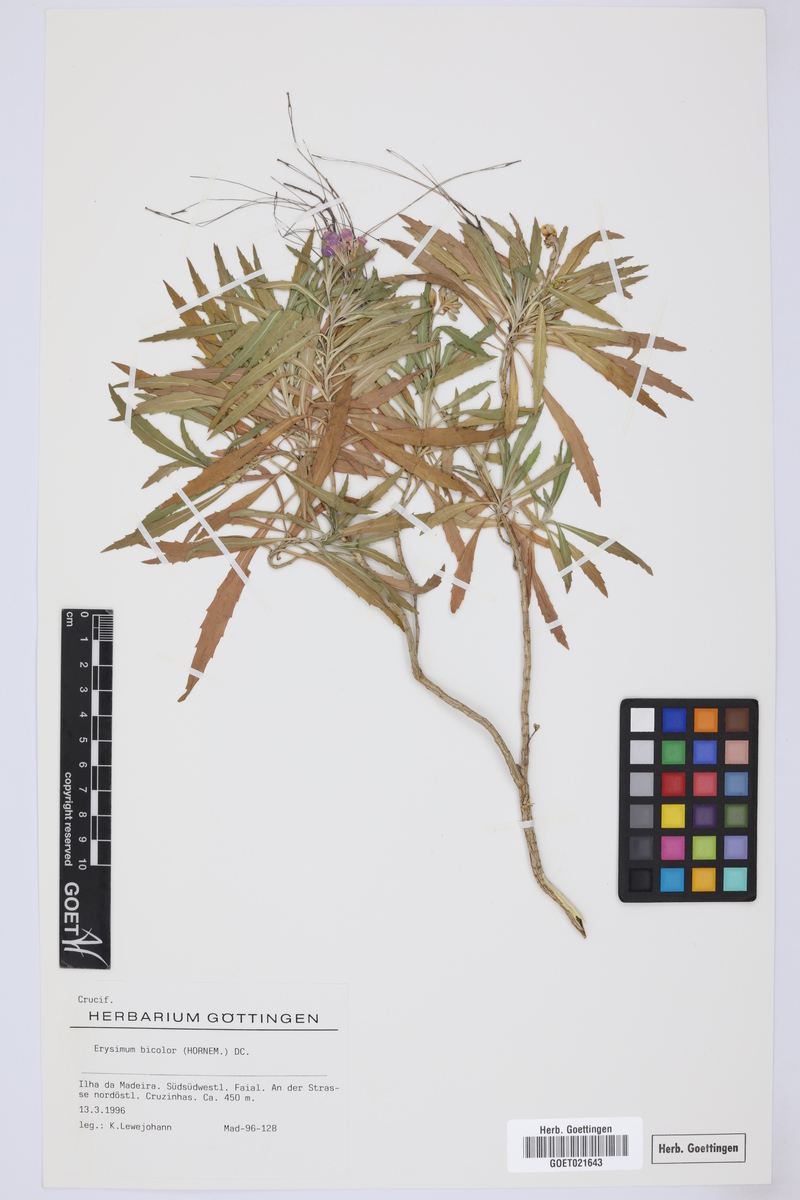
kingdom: Plantae
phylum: Tracheophyta
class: Magnoliopsida
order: Brassicales
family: Brassicaceae
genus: Erysimum
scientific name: Erysimum bicolor
